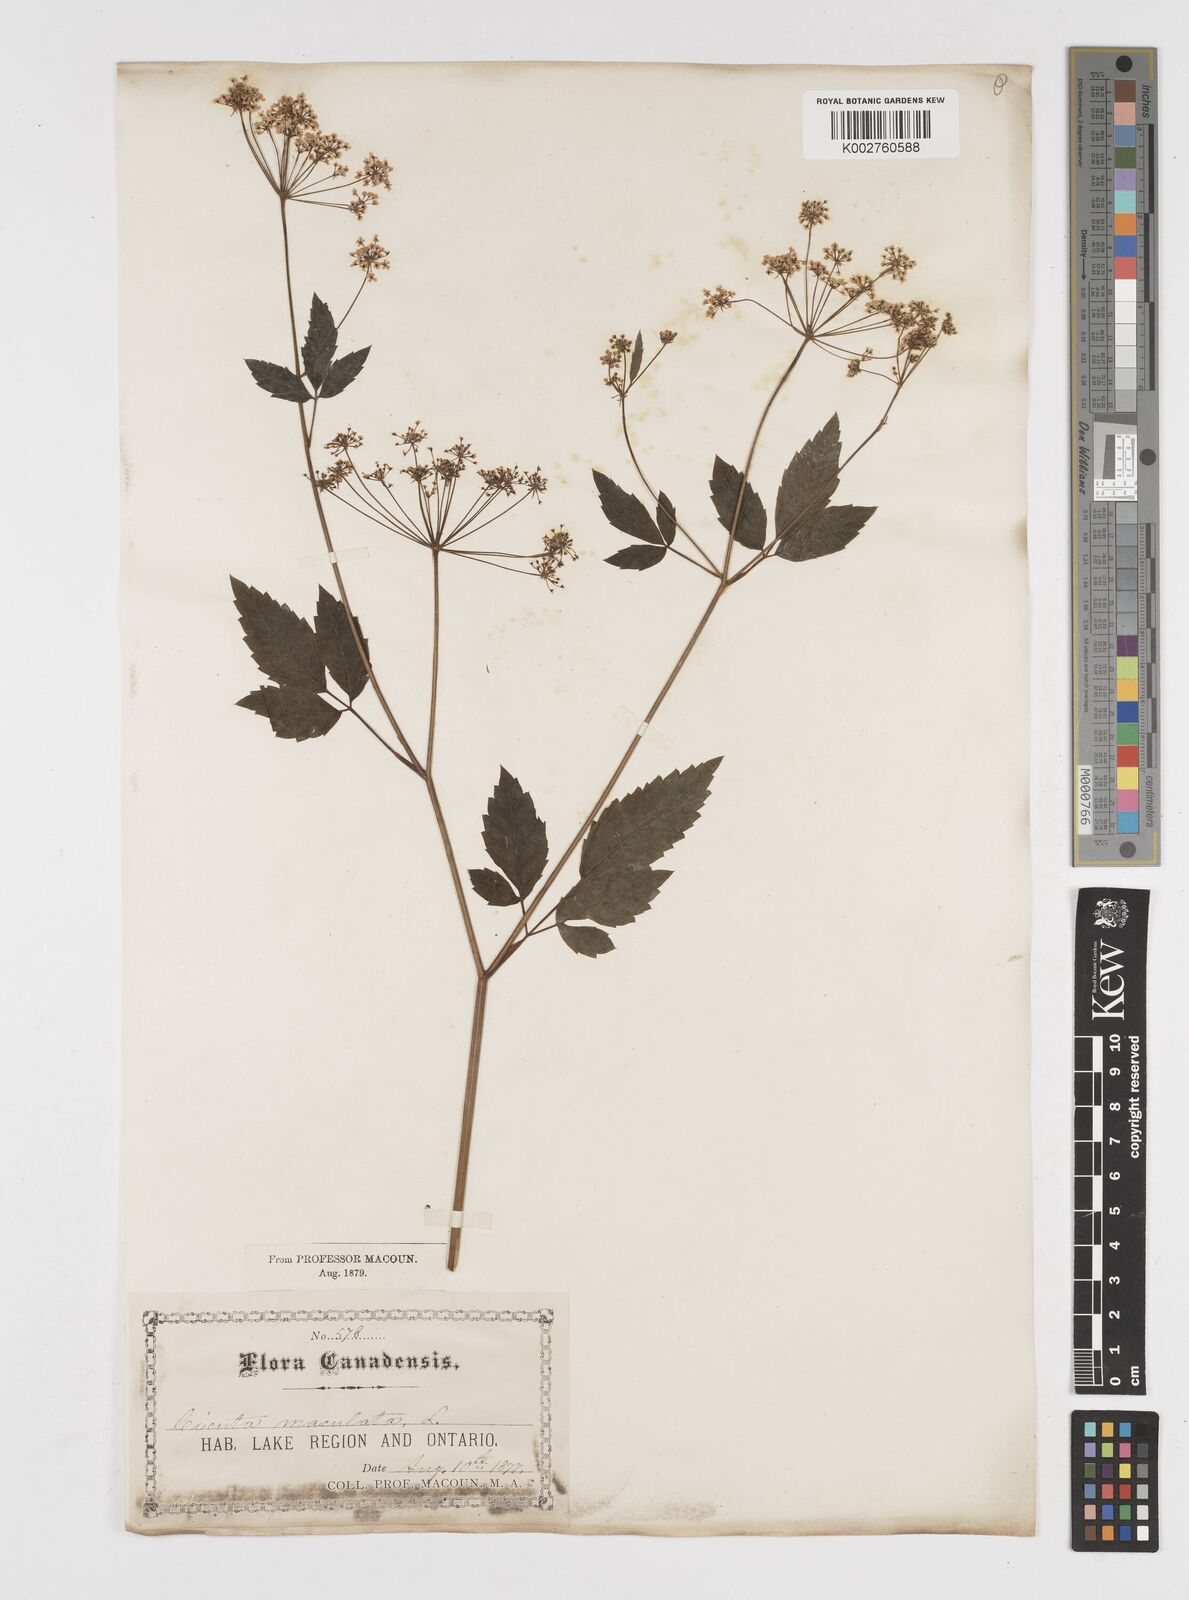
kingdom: Plantae
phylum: Tracheophyta
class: Magnoliopsida
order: Apiales
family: Apiaceae
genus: Cicuta
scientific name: Cicuta maculata
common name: Spotted cowbane
